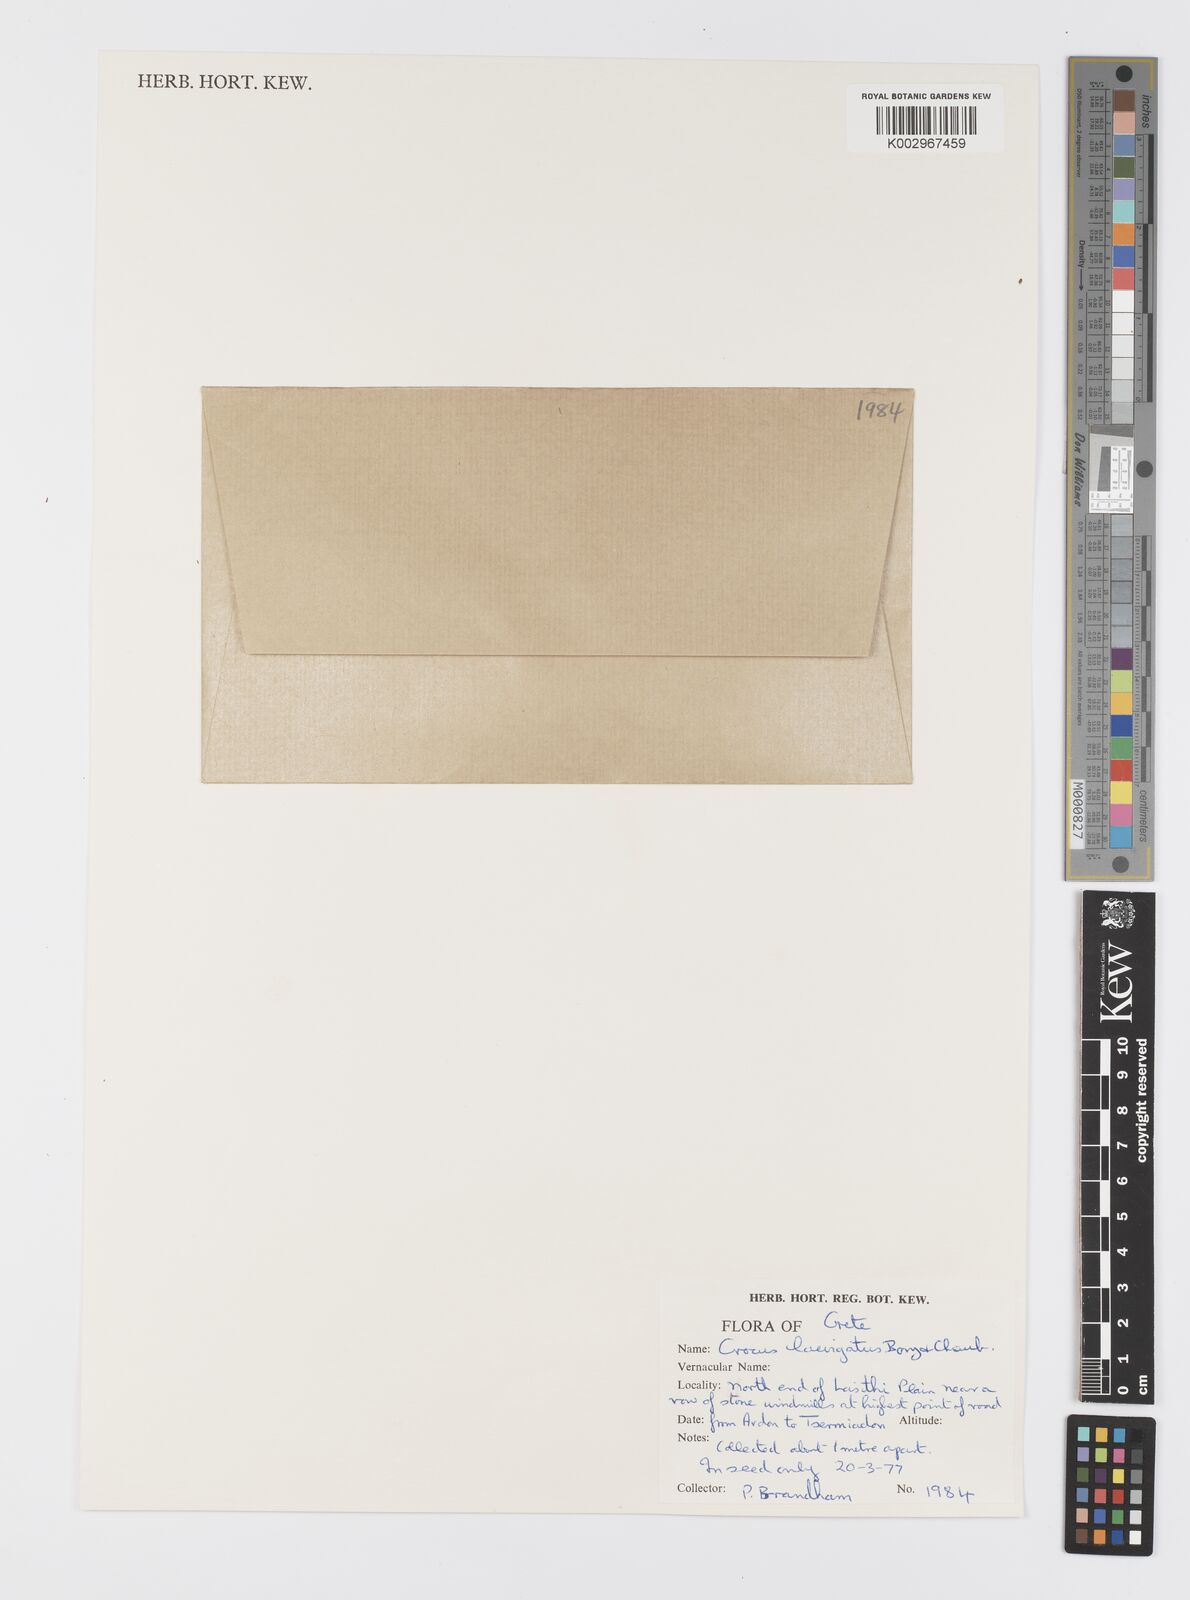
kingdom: Plantae
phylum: Tracheophyta
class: Liliopsida
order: Asparagales
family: Iridaceae
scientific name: Iridaceae
